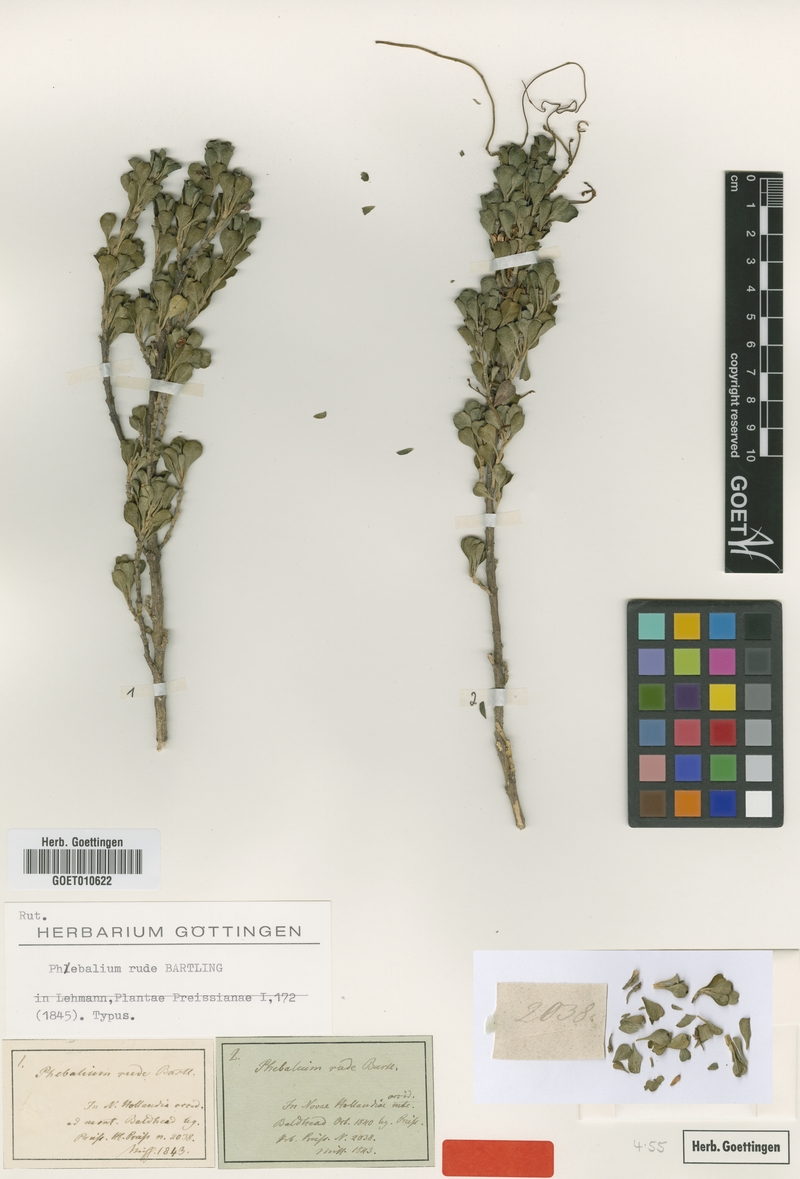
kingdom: Plantae
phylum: Tracheophyta
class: Magnoliopsida
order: Sapindales
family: Rutaceae
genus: Rhadinothamnus
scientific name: Rhadinothamnus rudis
